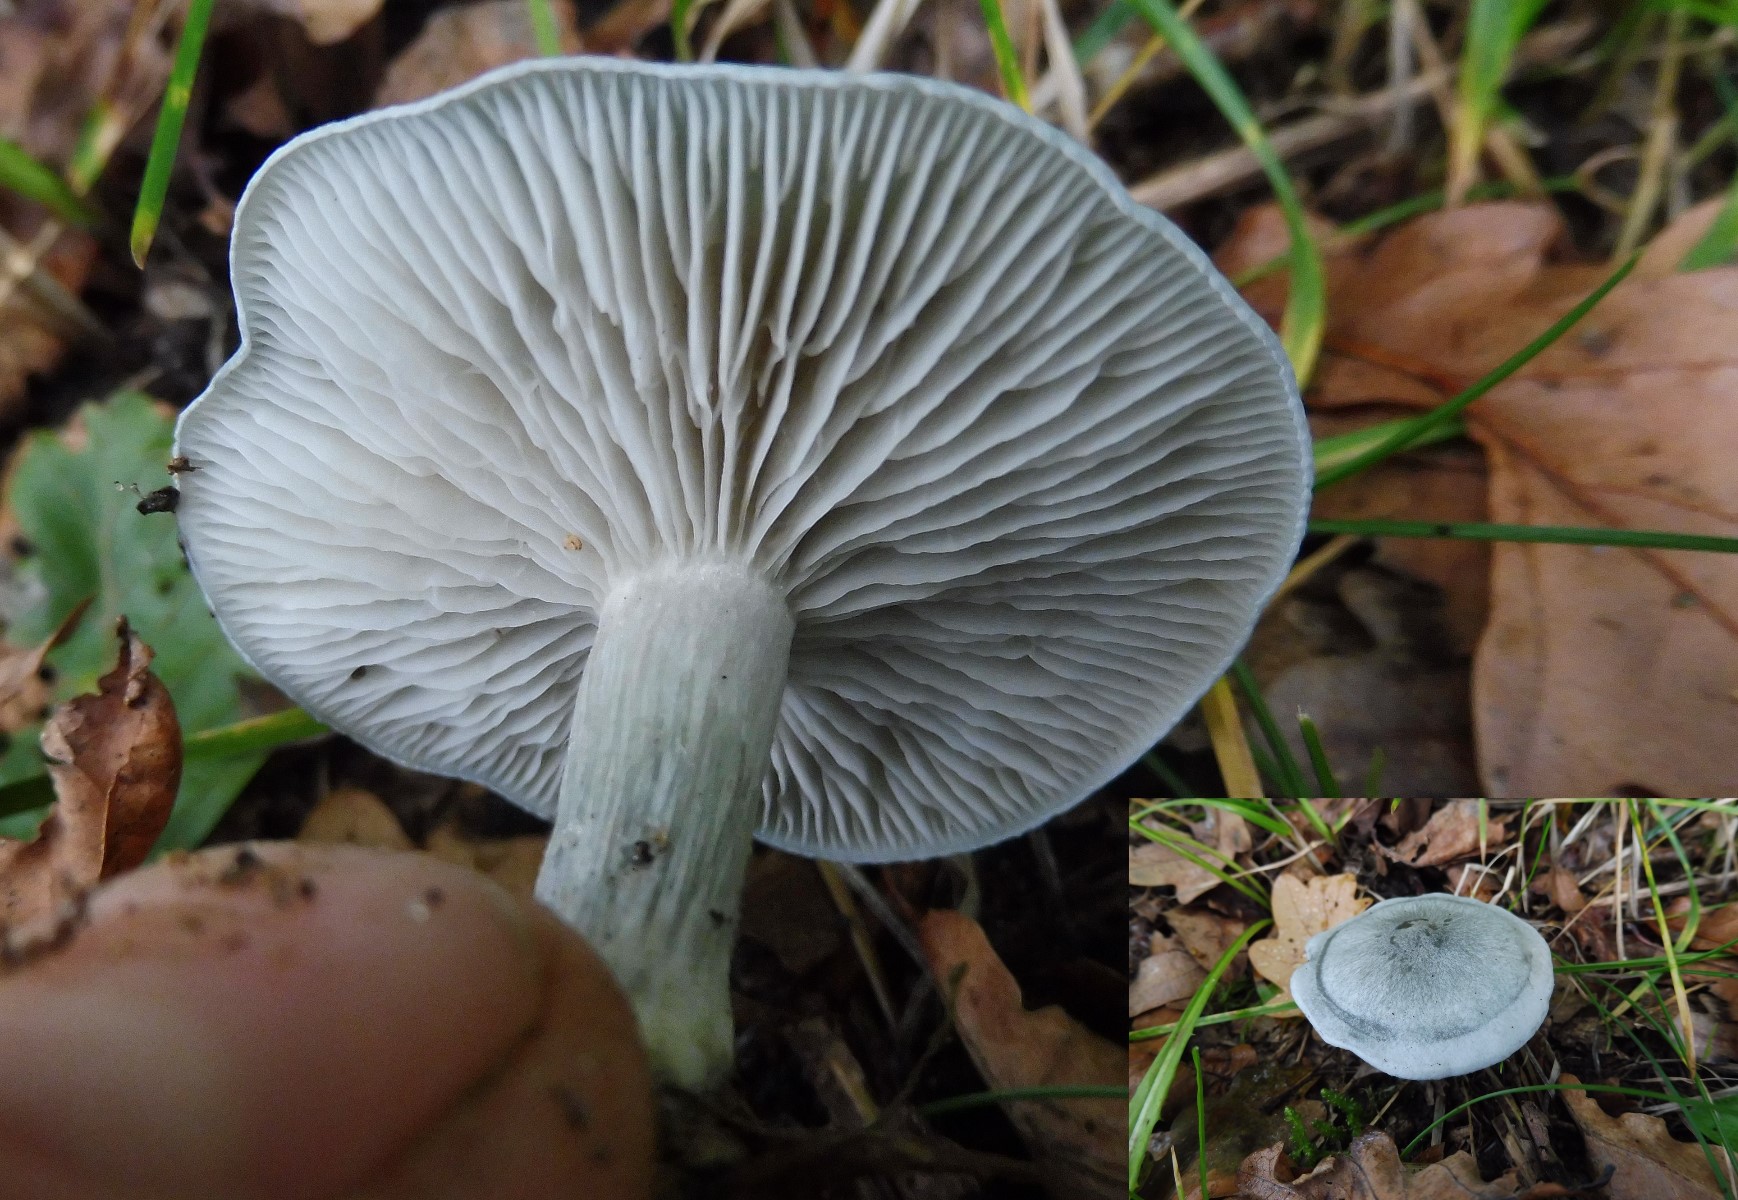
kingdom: Fungi
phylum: Basidiomycota
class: Agaricomycetes
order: Agaricales
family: Tricholomataceae
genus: Clitocybe
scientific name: Clitocybe odora
